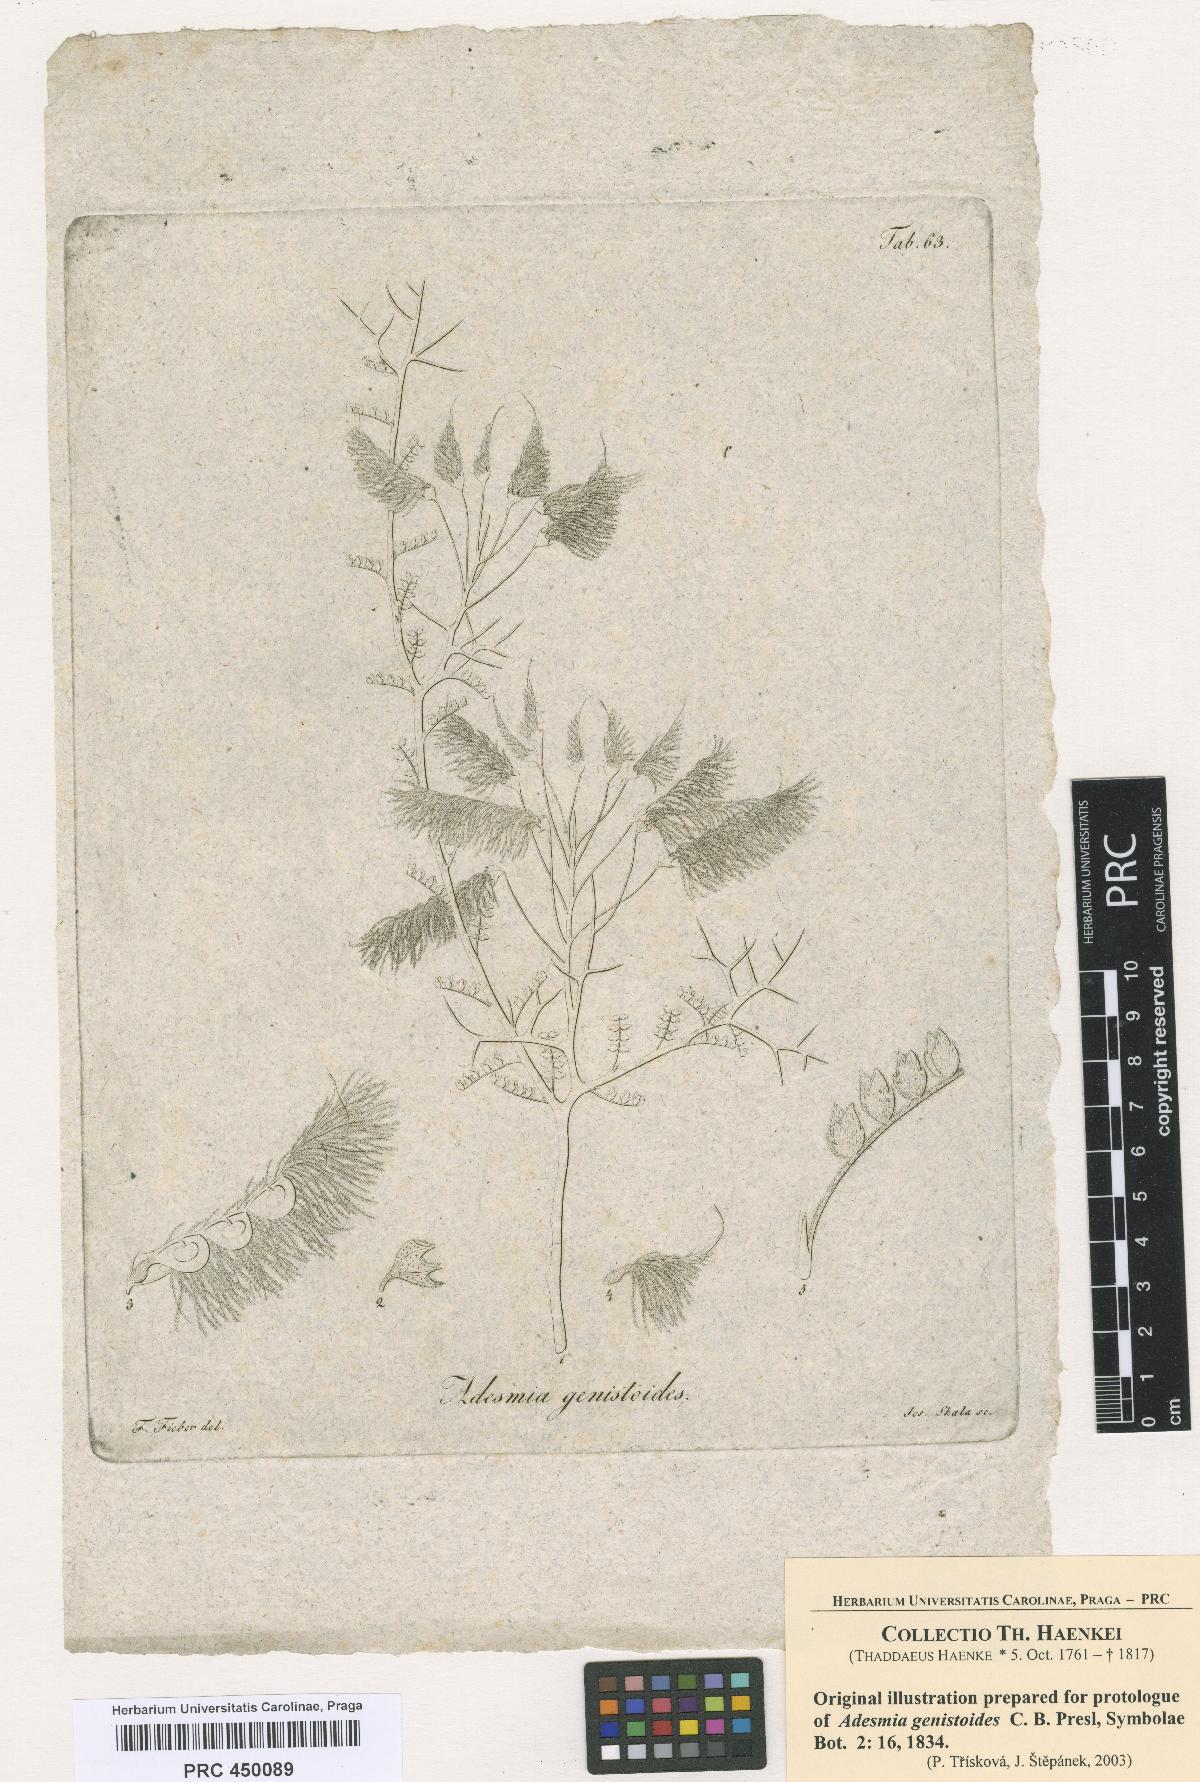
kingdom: Plantae
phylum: Tracheophyta
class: Magnoliopsida
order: Fabales
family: Fabaceae
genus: Adesmia
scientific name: Adesmia pedicellata
